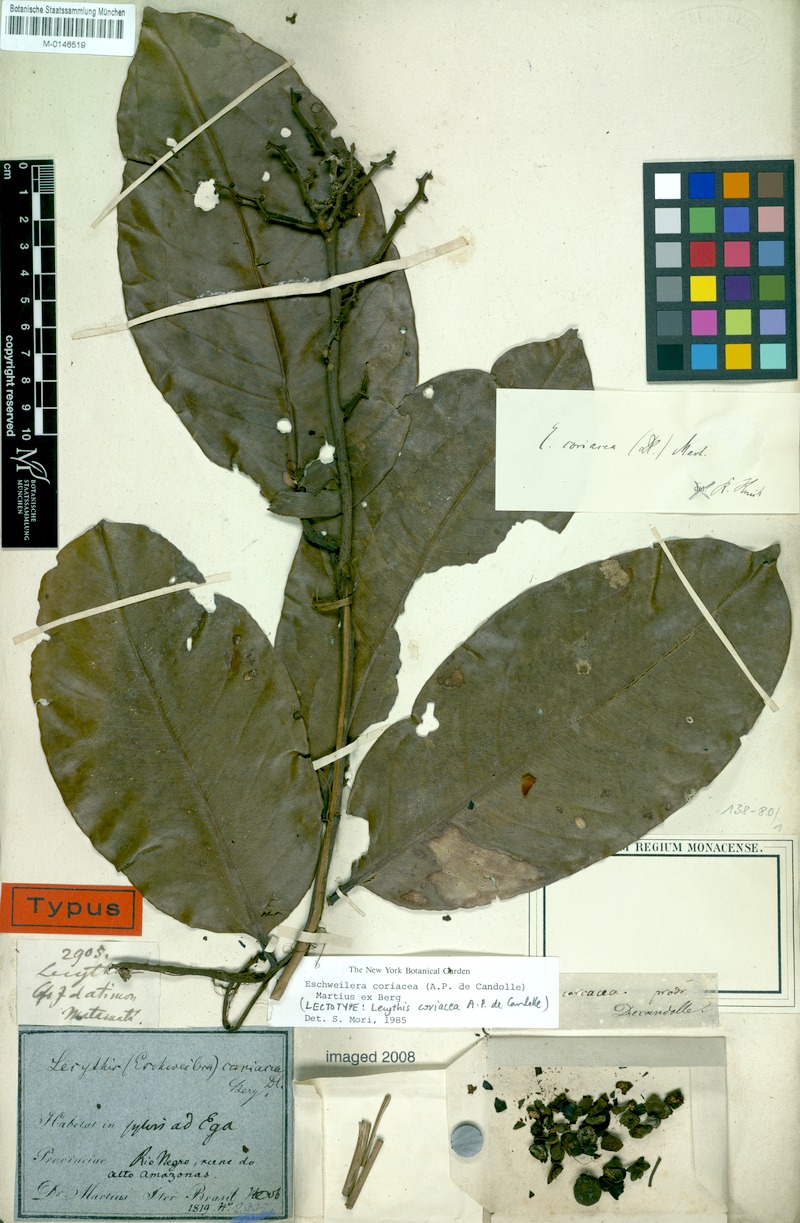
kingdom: Plantae
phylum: Tracheophyta
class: Magnoliopsida
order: Ericales
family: Lecythidaceae
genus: Eschweilera
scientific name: Eschweilera coriacea
